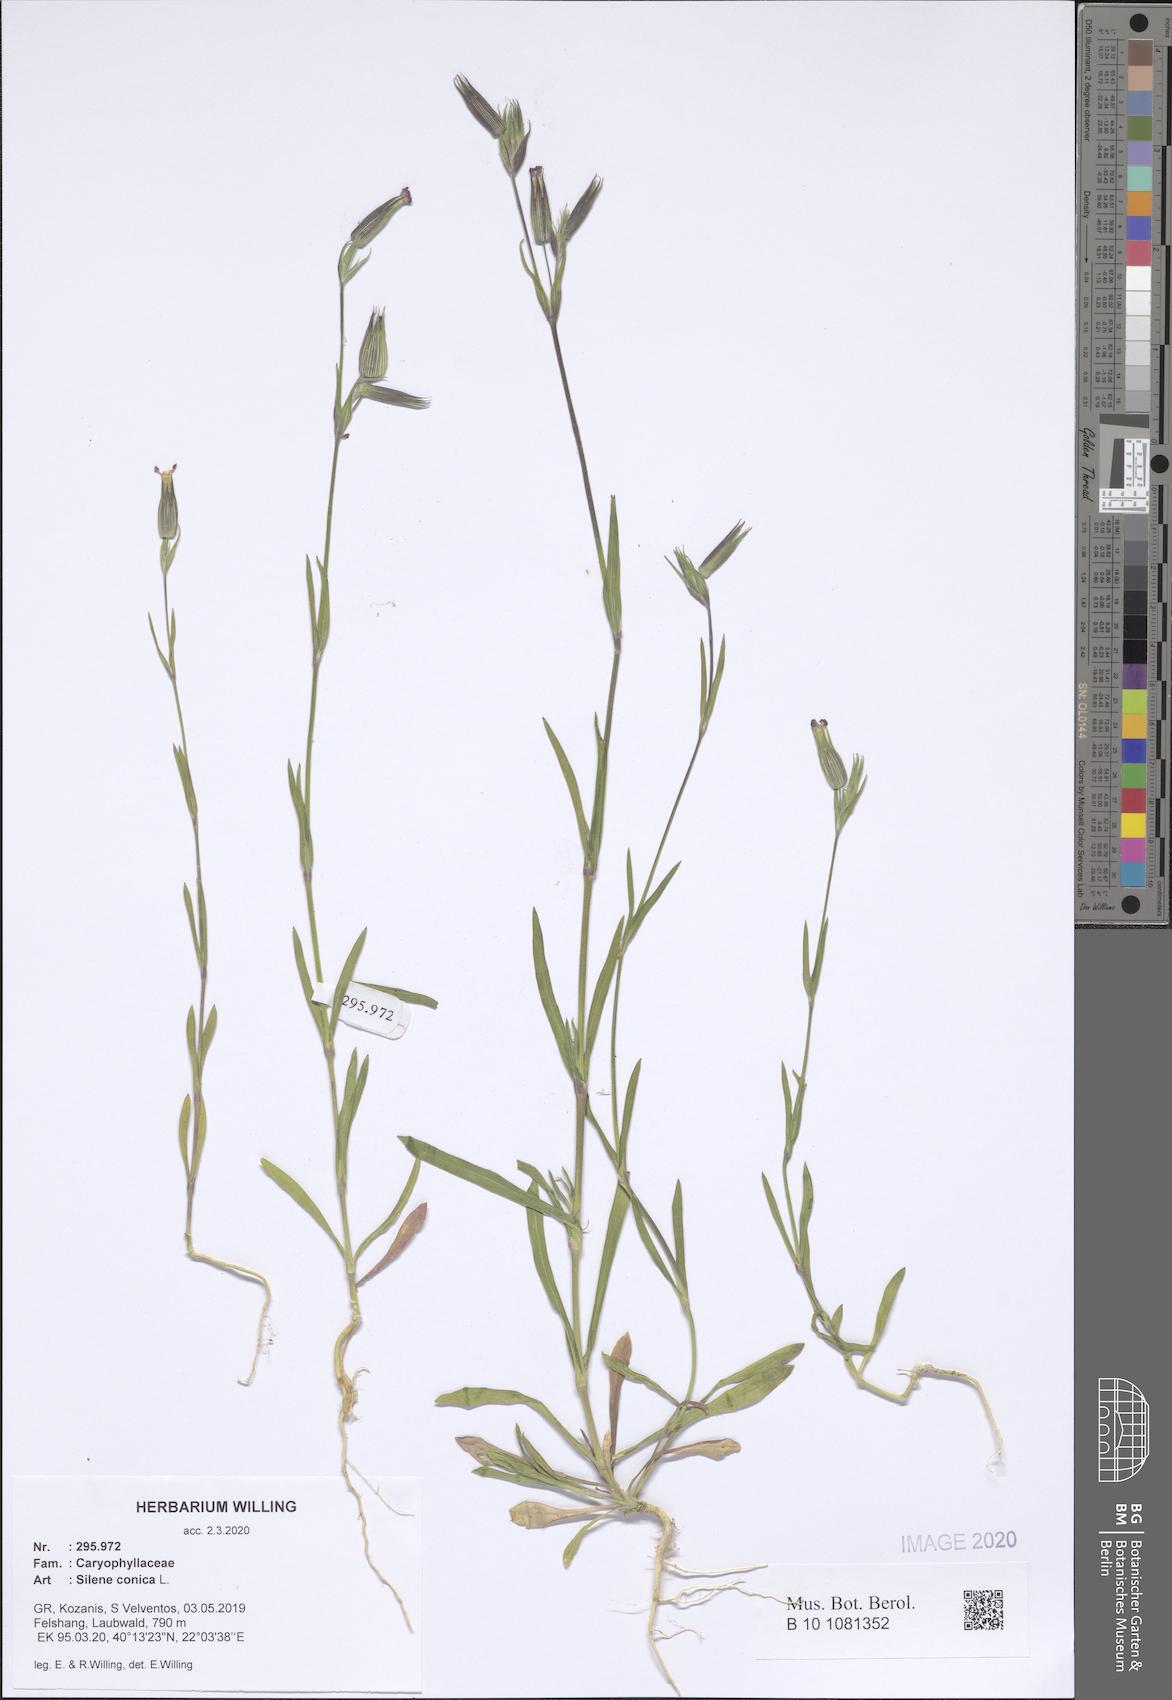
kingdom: Plantae
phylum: Tracheophyta
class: Magnoliopsida
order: Caryophyllales
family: Caryophyllaceae
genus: Silene
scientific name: Silene conica
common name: Sand catchfly
